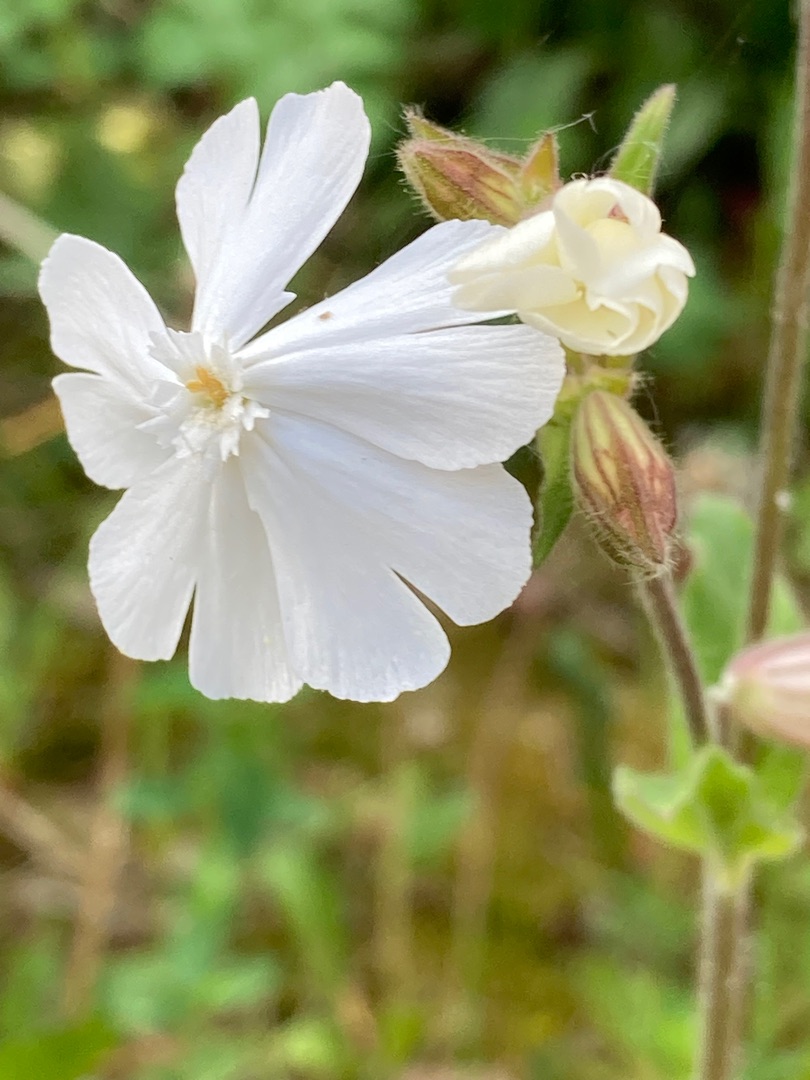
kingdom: Plantae
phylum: Tracheophyta
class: Magnoliopsida
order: Caryophyllales
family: Caryophyllaceae
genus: Silene
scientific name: Silene latifolia
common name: Aftenpragtstjerne
